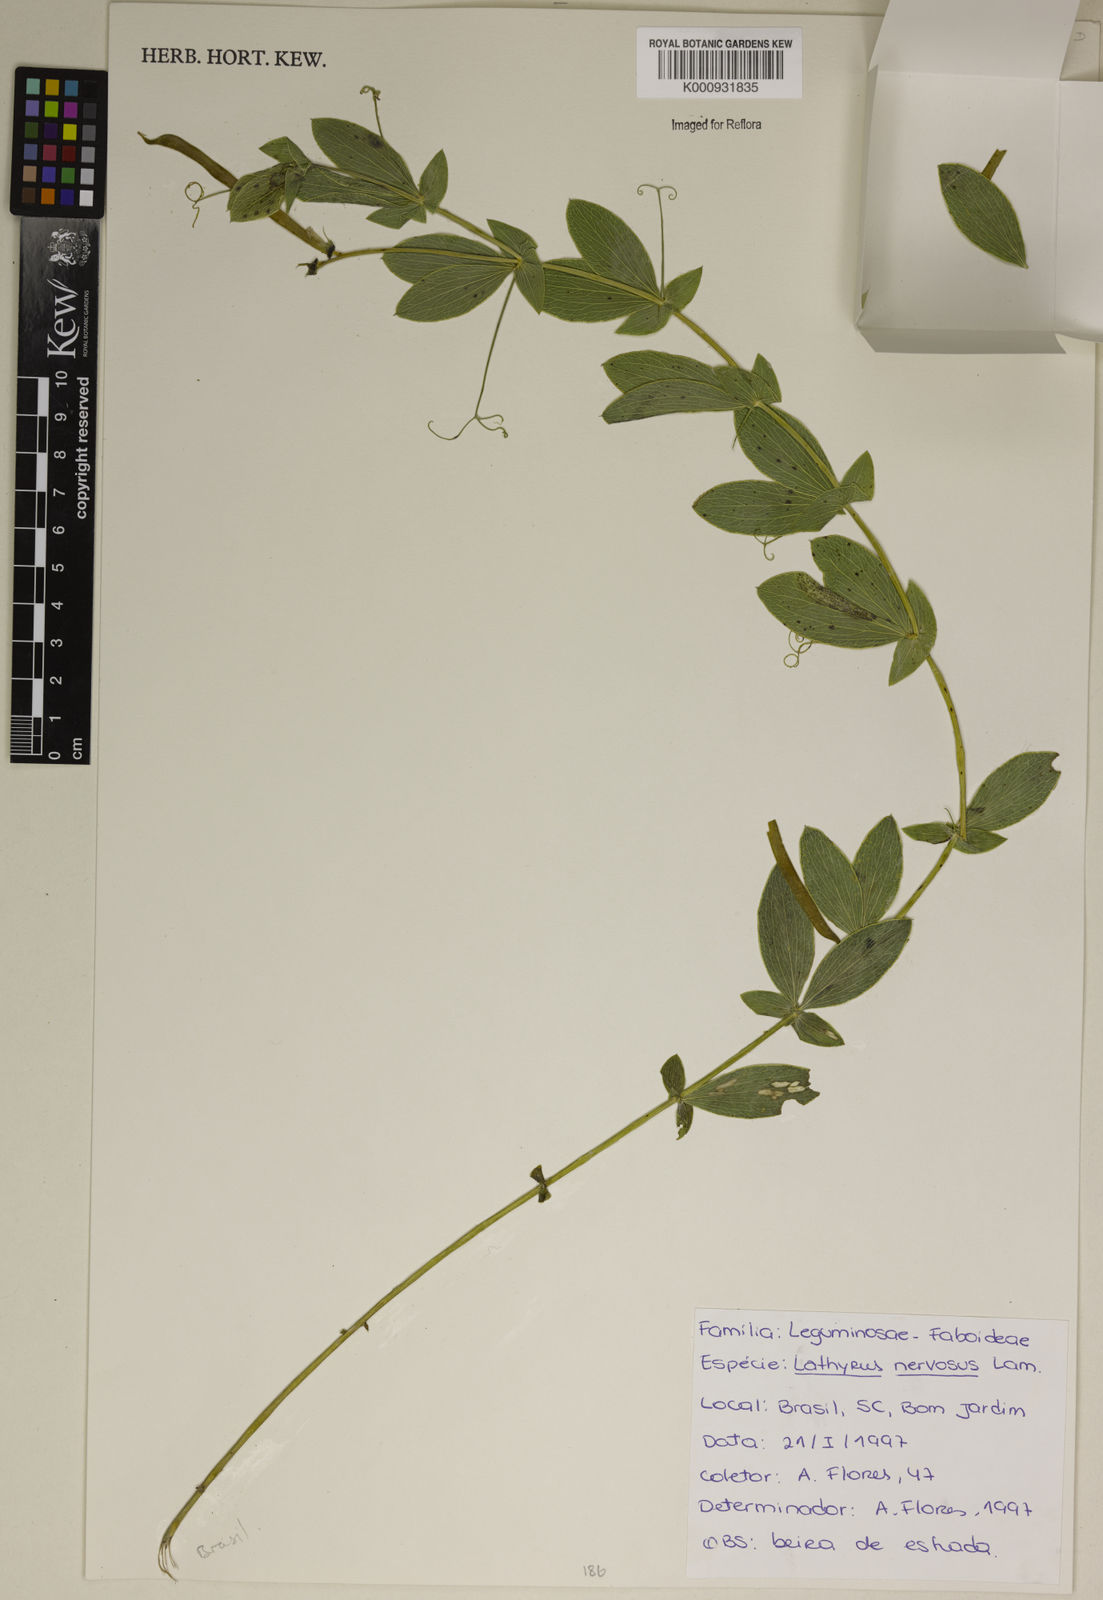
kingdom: Plantae
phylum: Tracheophyta
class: Magnoliopsida
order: Fabales
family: Fabaceae
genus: Lathyrus
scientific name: Lathyrus nervosus
